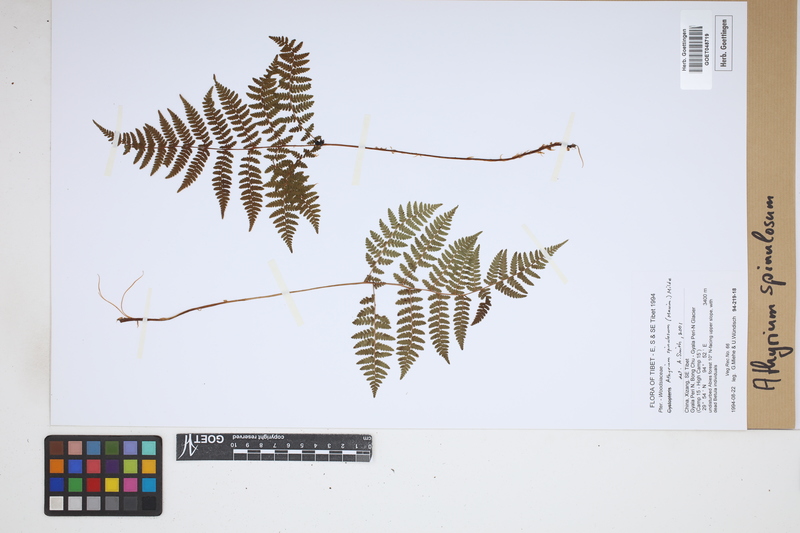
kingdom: Plantae
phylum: Tracheophyta
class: Polypodiopsida
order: Polypodiales
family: Athyriaceae
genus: Athyrium
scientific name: Athyrium spinulosum
